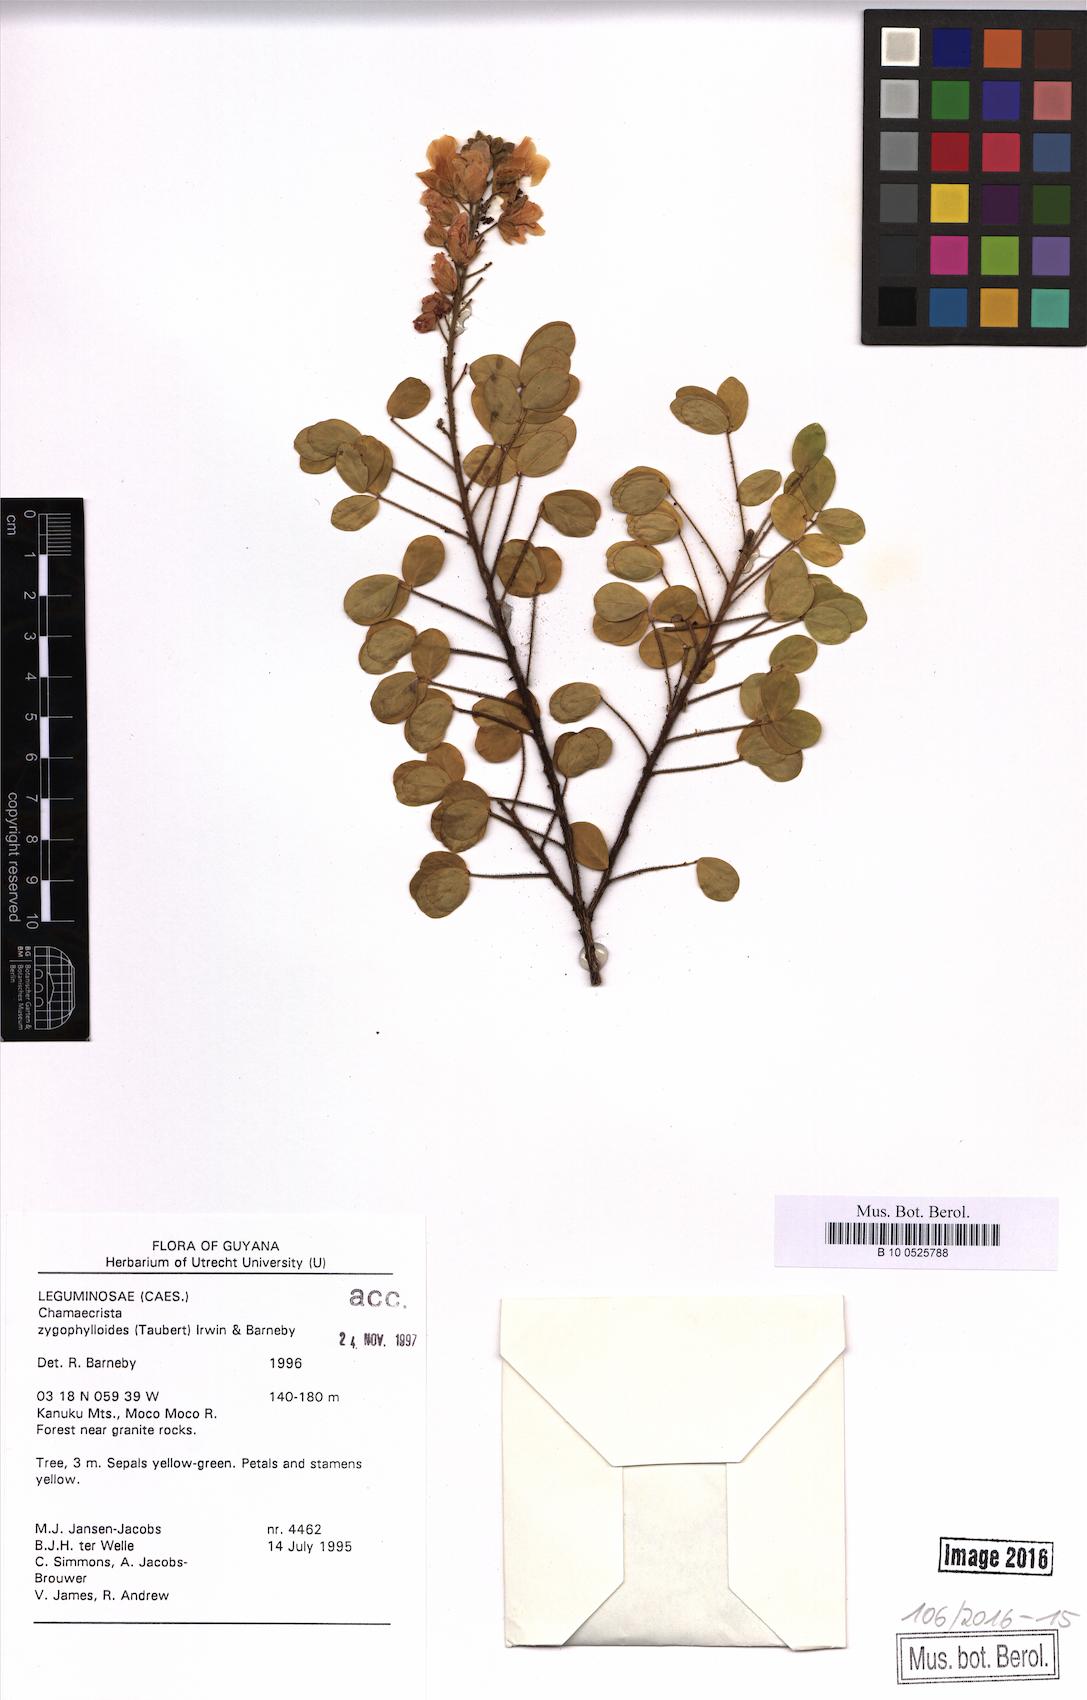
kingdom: Plantae
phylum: Tracheophyta
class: Magnoliopsida
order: Fabales
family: Fabaceae
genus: Chamaecrista
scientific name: Chamaecrista zygophylloides
